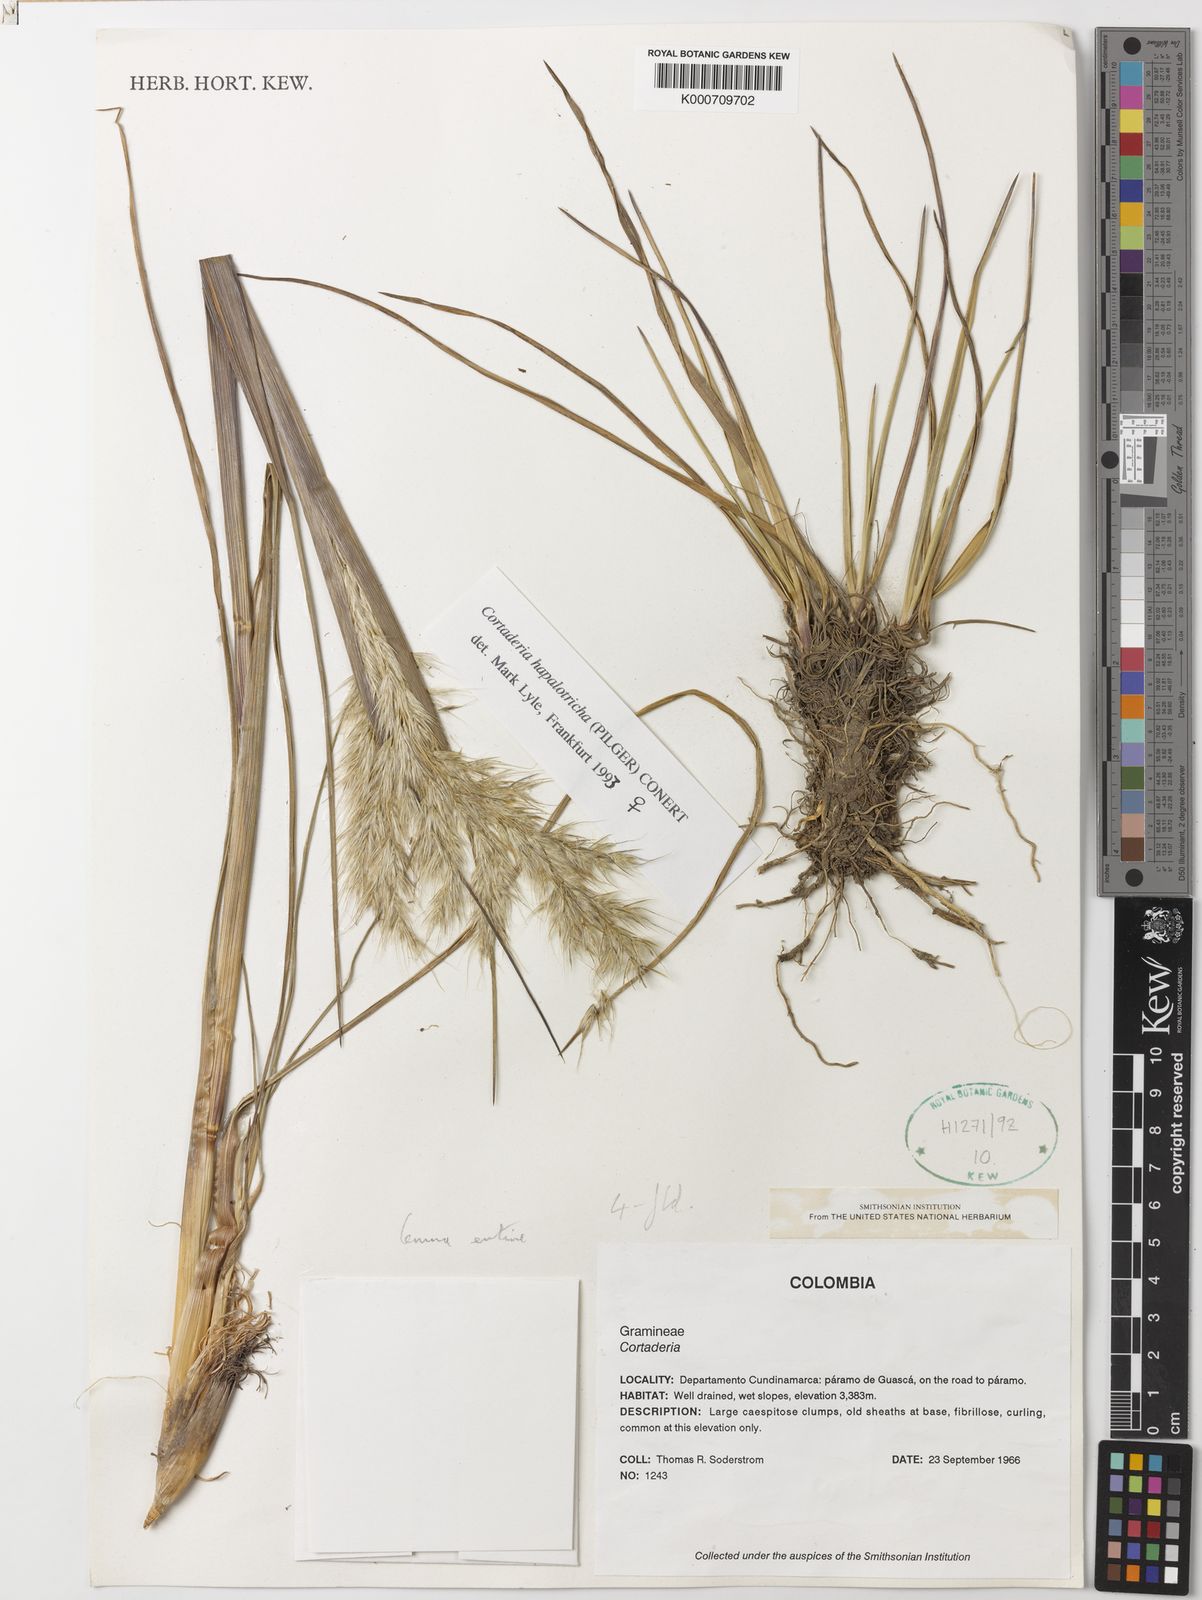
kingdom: Plantae
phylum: Tracheophyta
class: Liliopsida
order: Poales
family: Poaceae
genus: Cortaderia
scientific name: Cortaderia hapalotricha
